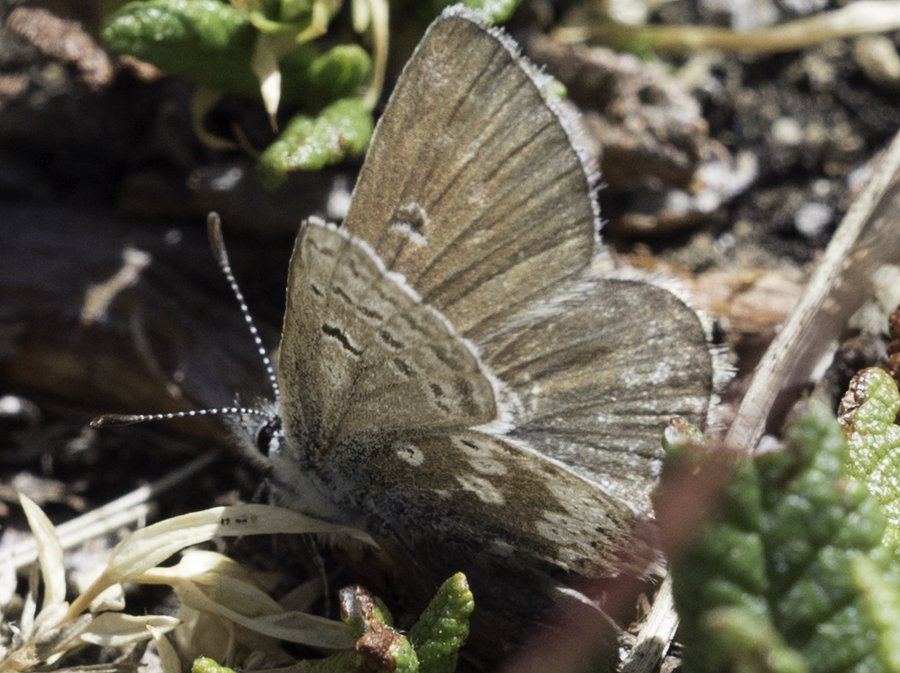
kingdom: Animalia
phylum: Arthropoda
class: Insecta
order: Lepidoptera
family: Lycaenidae
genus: Agriades
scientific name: Agriades glandon
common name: Arctic Blue
